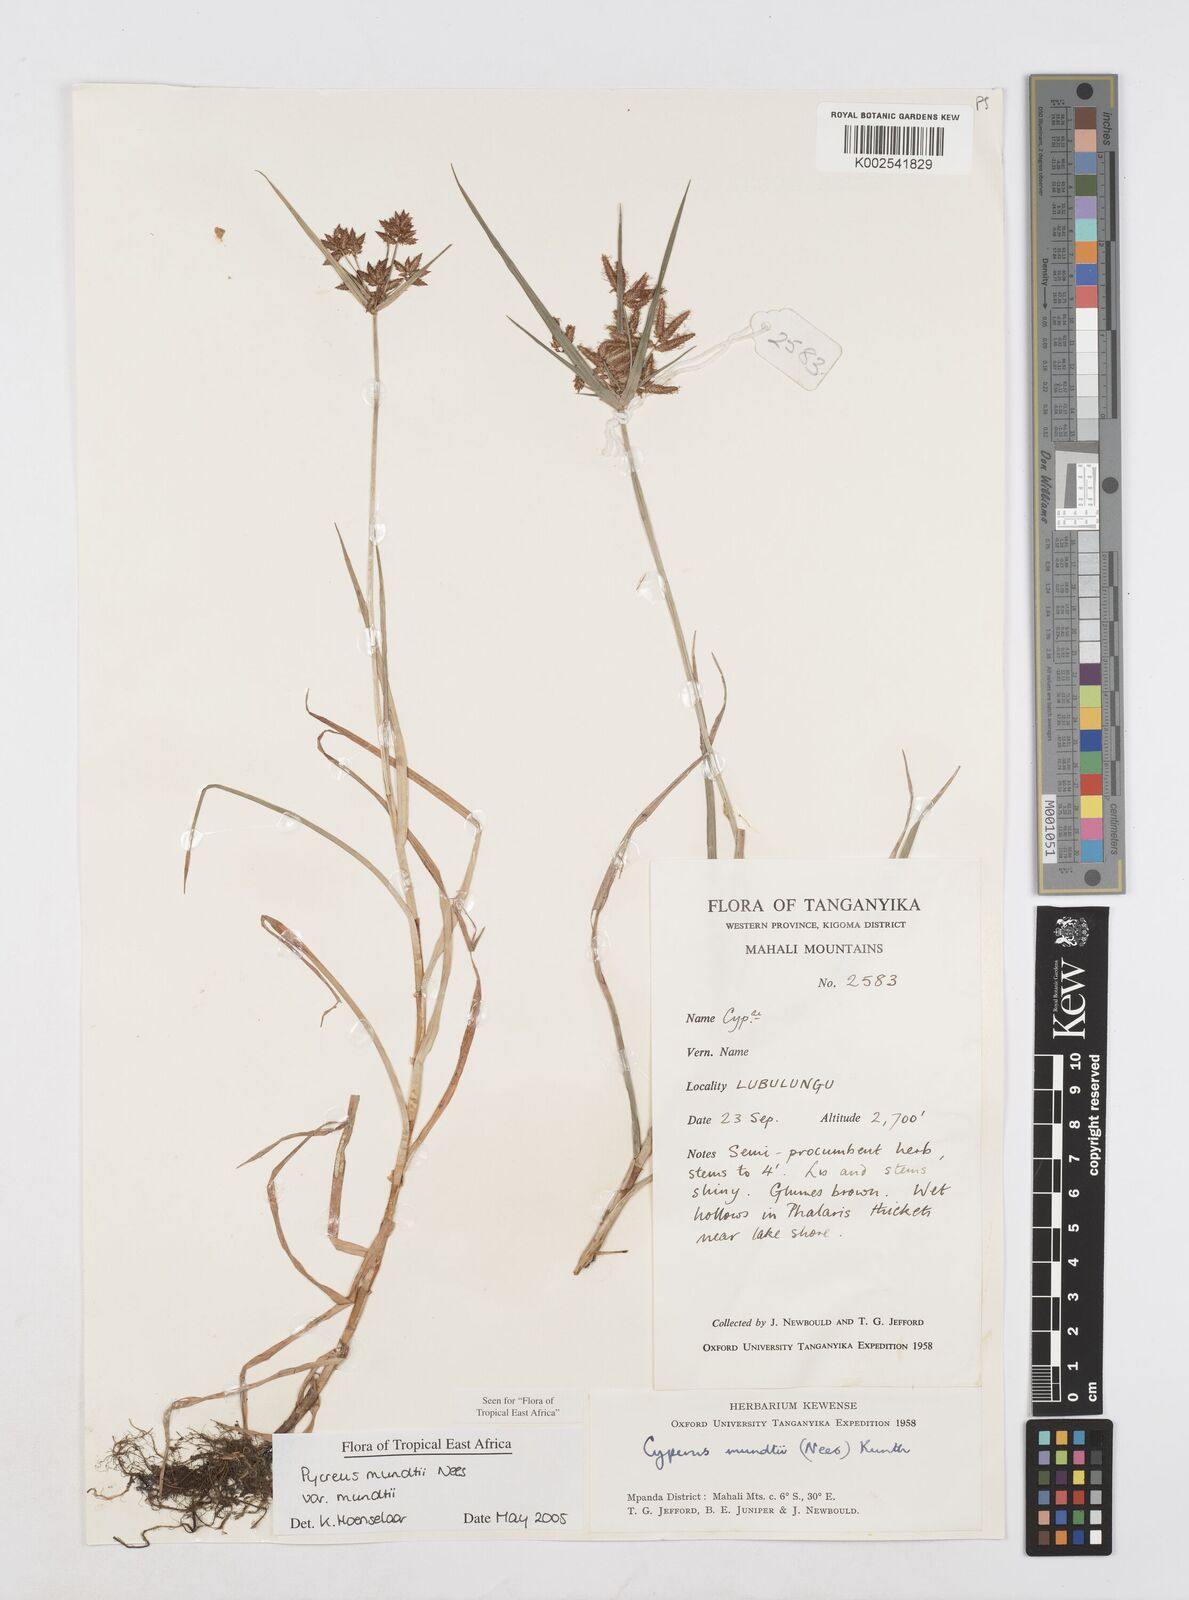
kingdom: Plantae
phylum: Tracheophyta
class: Liliopsida
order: Poales
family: Cyperaceae
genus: Cyperus
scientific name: Cyperus mundii
